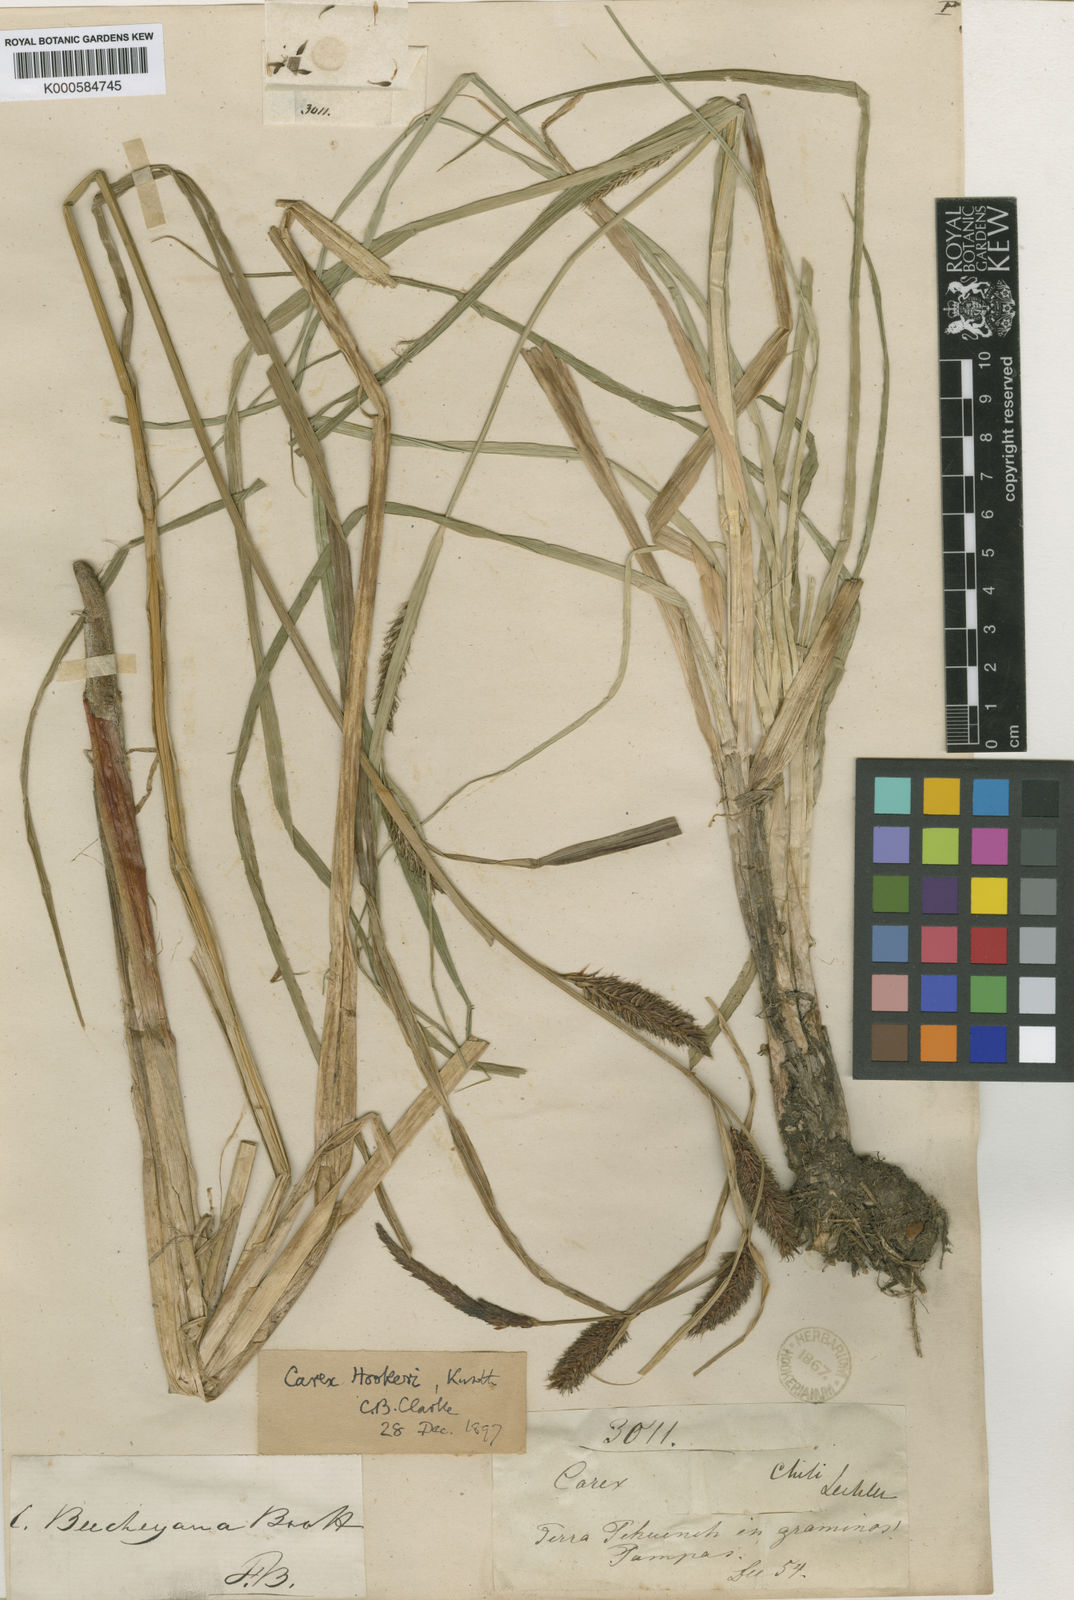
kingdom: Plantae
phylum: Tracheophyta
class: Liliopsida
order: Poales
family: Cyperaceae
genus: Carex
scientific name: Carex hookeri
